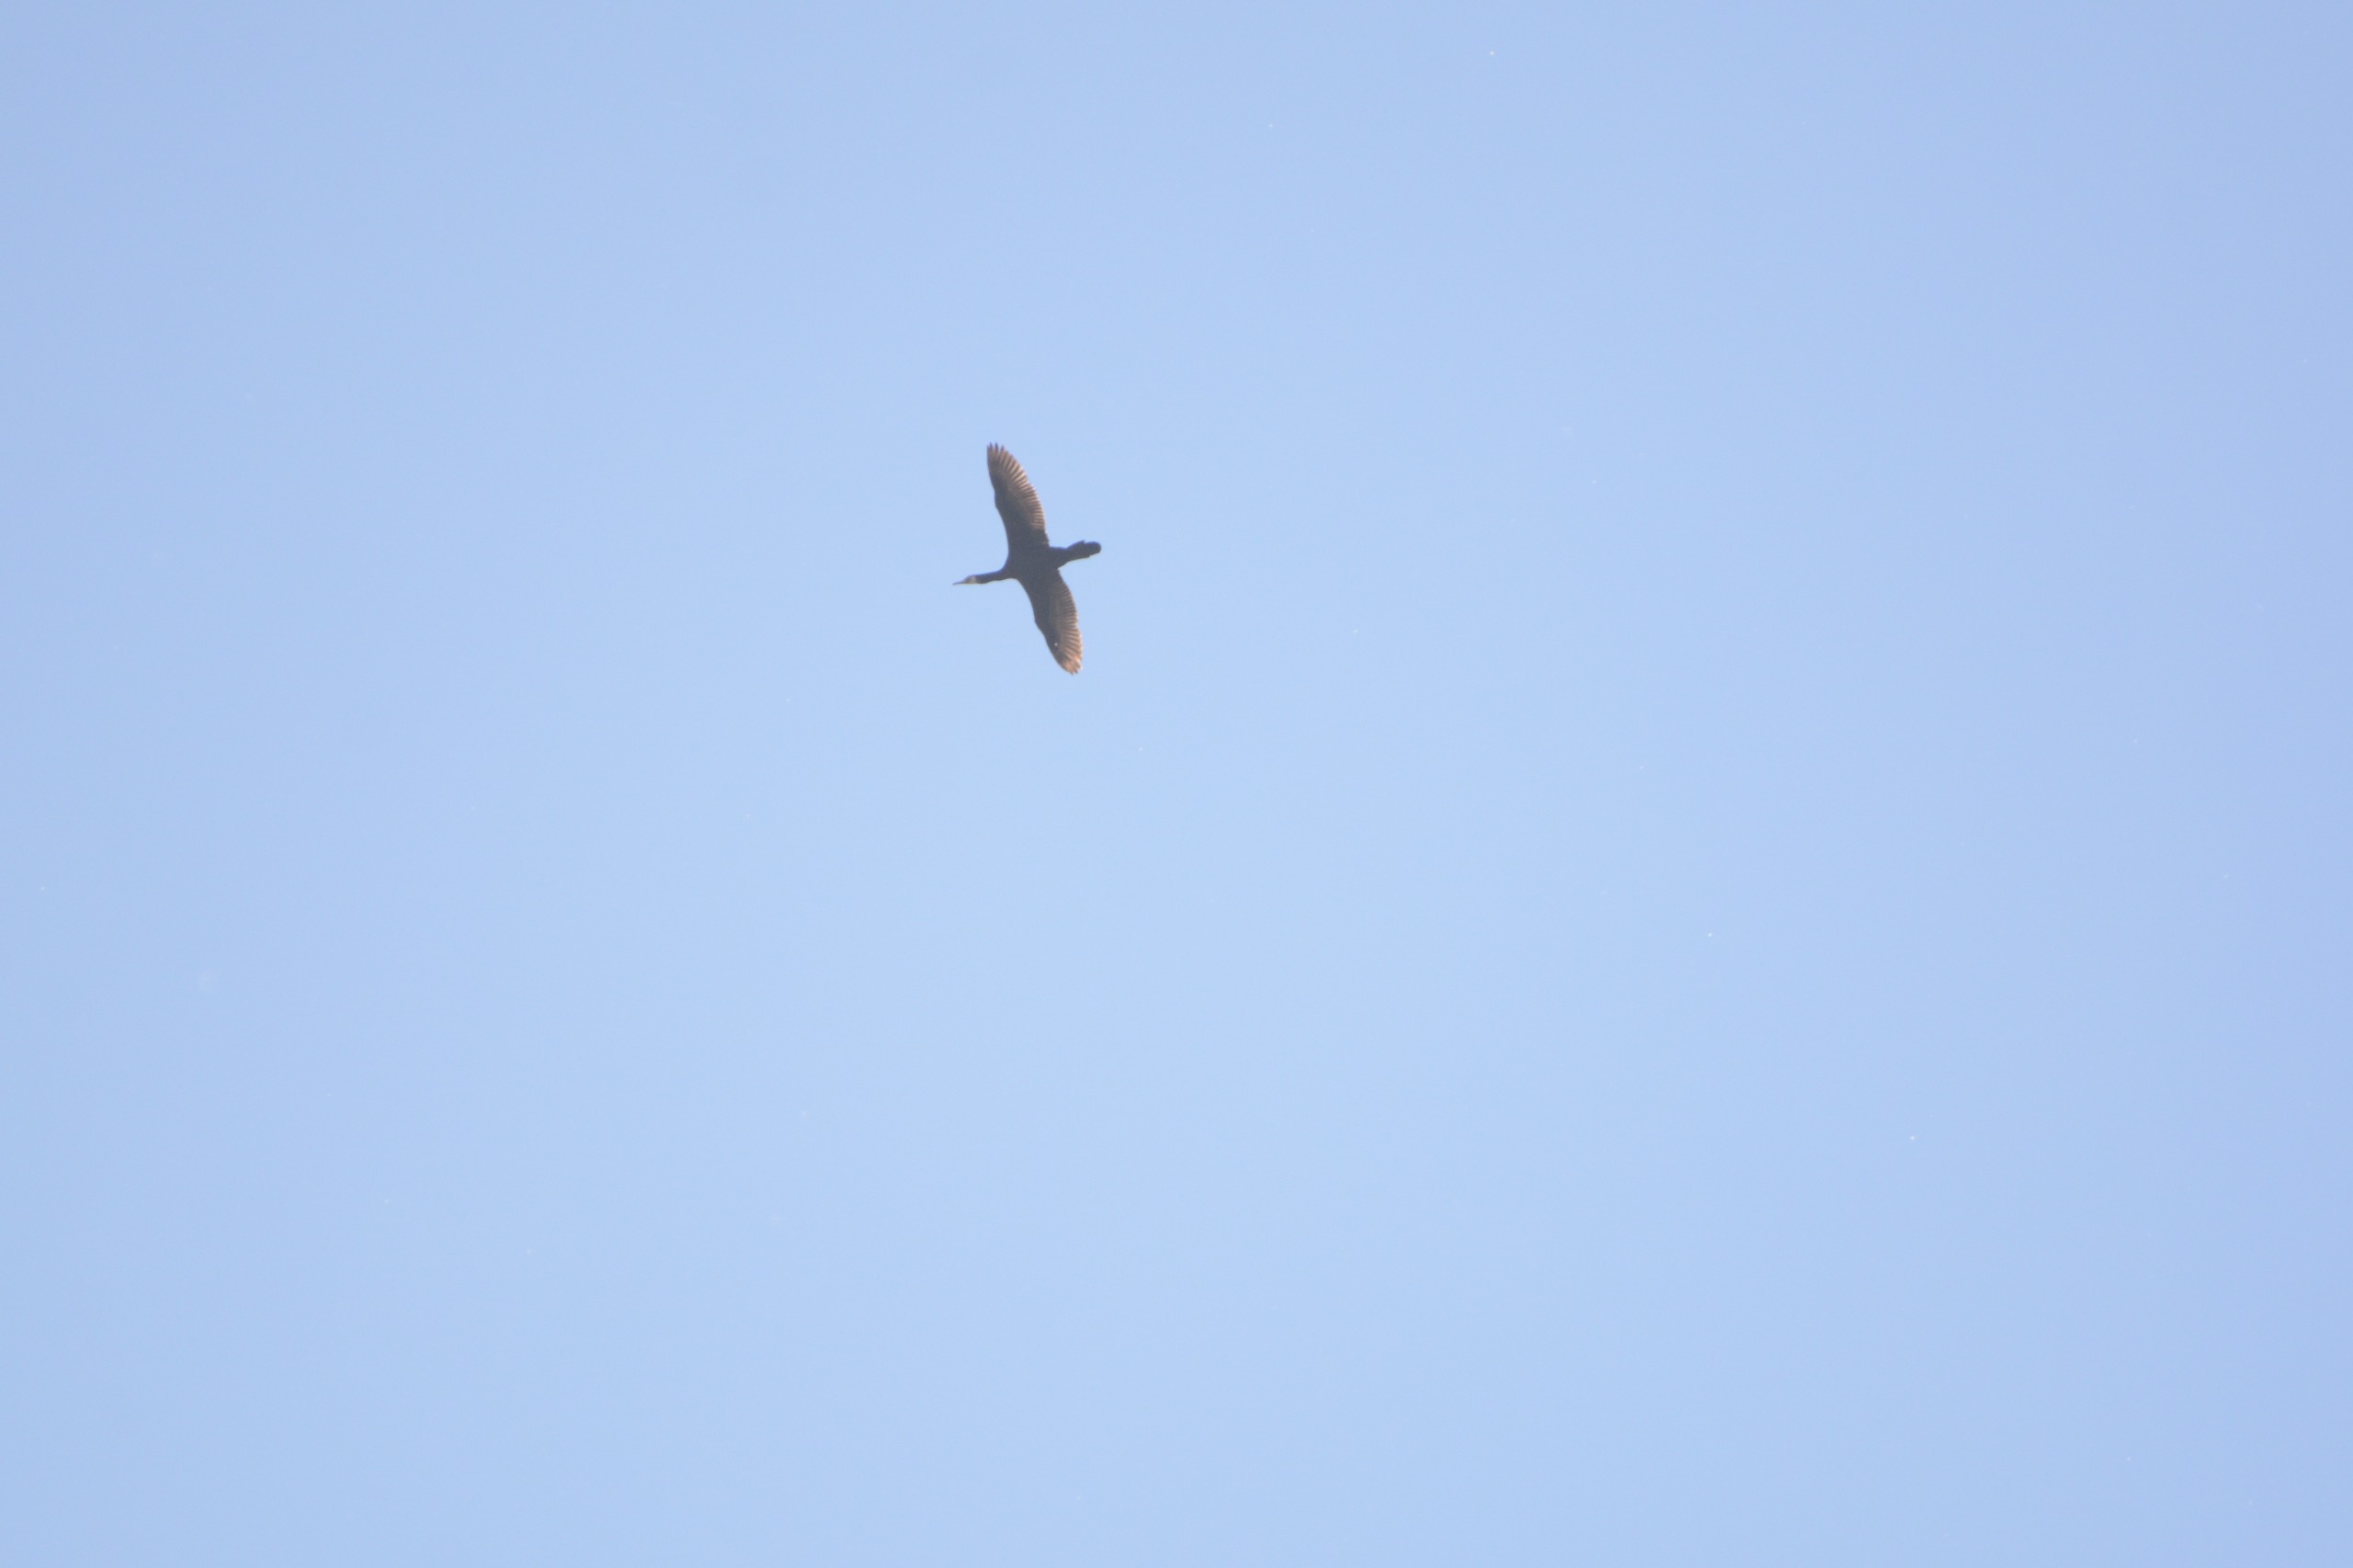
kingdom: Animalia
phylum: Chordata
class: Aves
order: Suliformes
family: Phalacrocoracidae
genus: Phalacrocorax
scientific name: Phalacrocorax carbo
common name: Skarv
